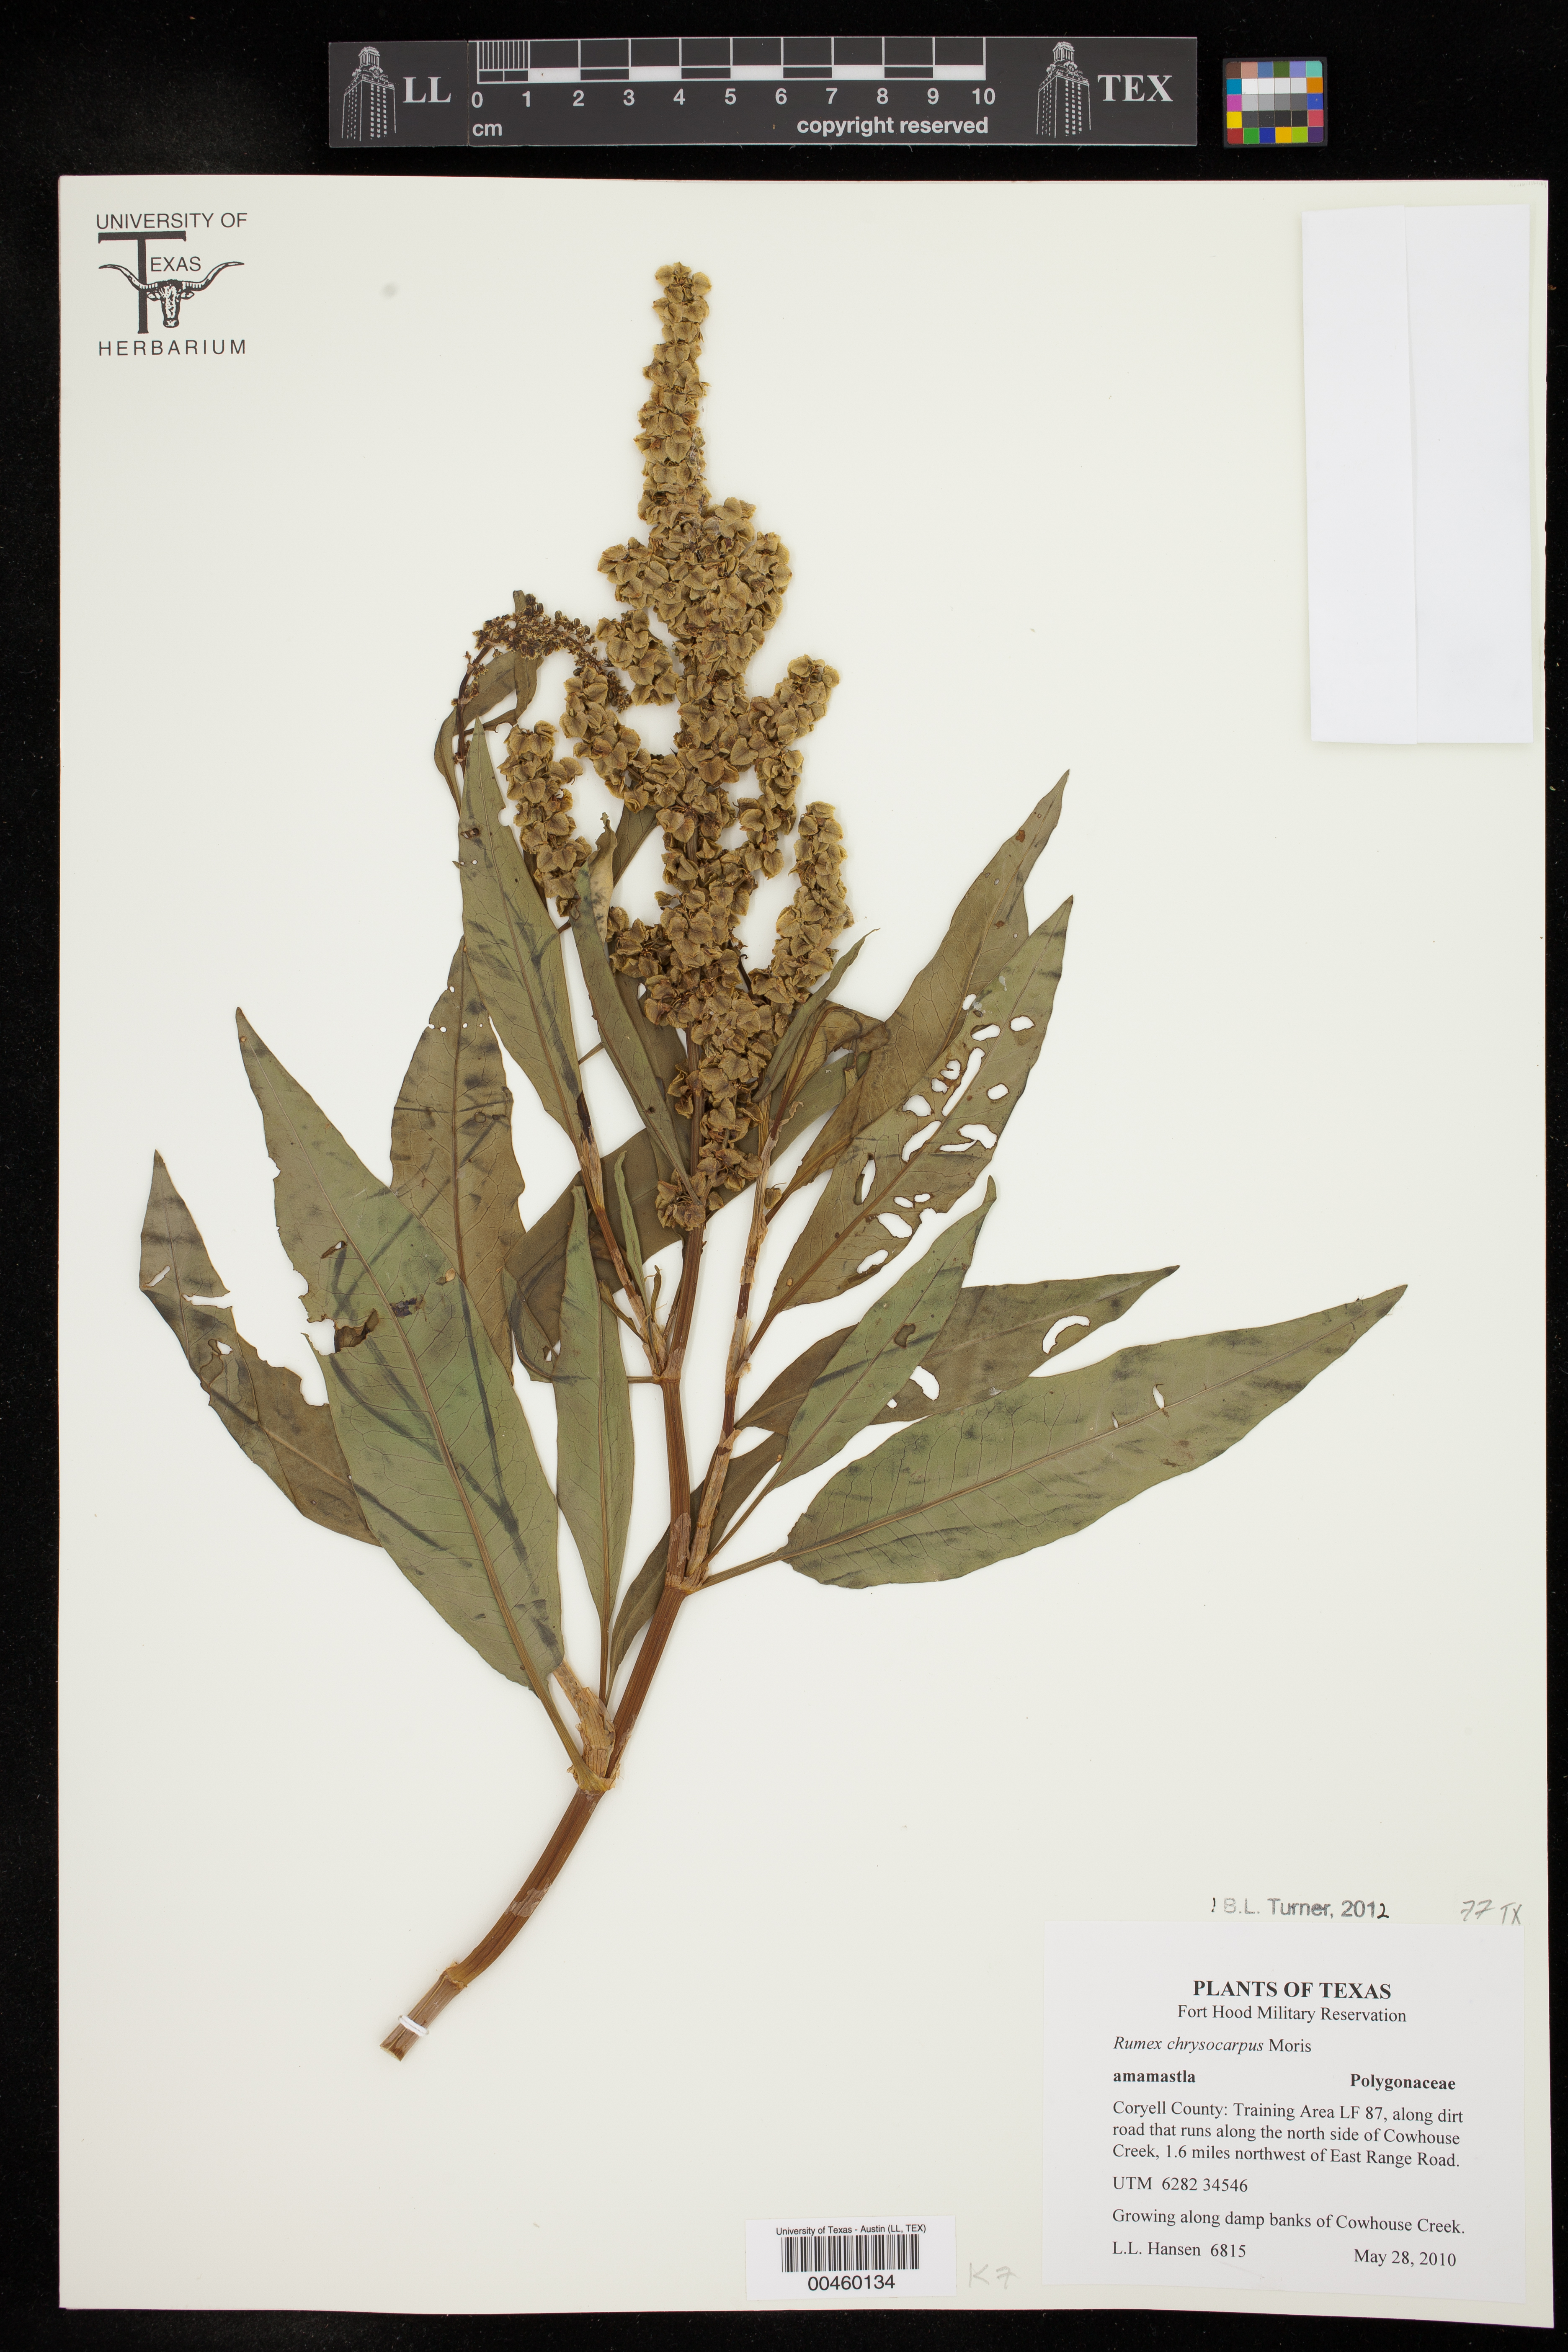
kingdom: Plantae
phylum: Tracheophyta
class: Magnoliopsida
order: Caryophyllales
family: Polygonaceae
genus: Rumex
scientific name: Rumex chrysocarpus
